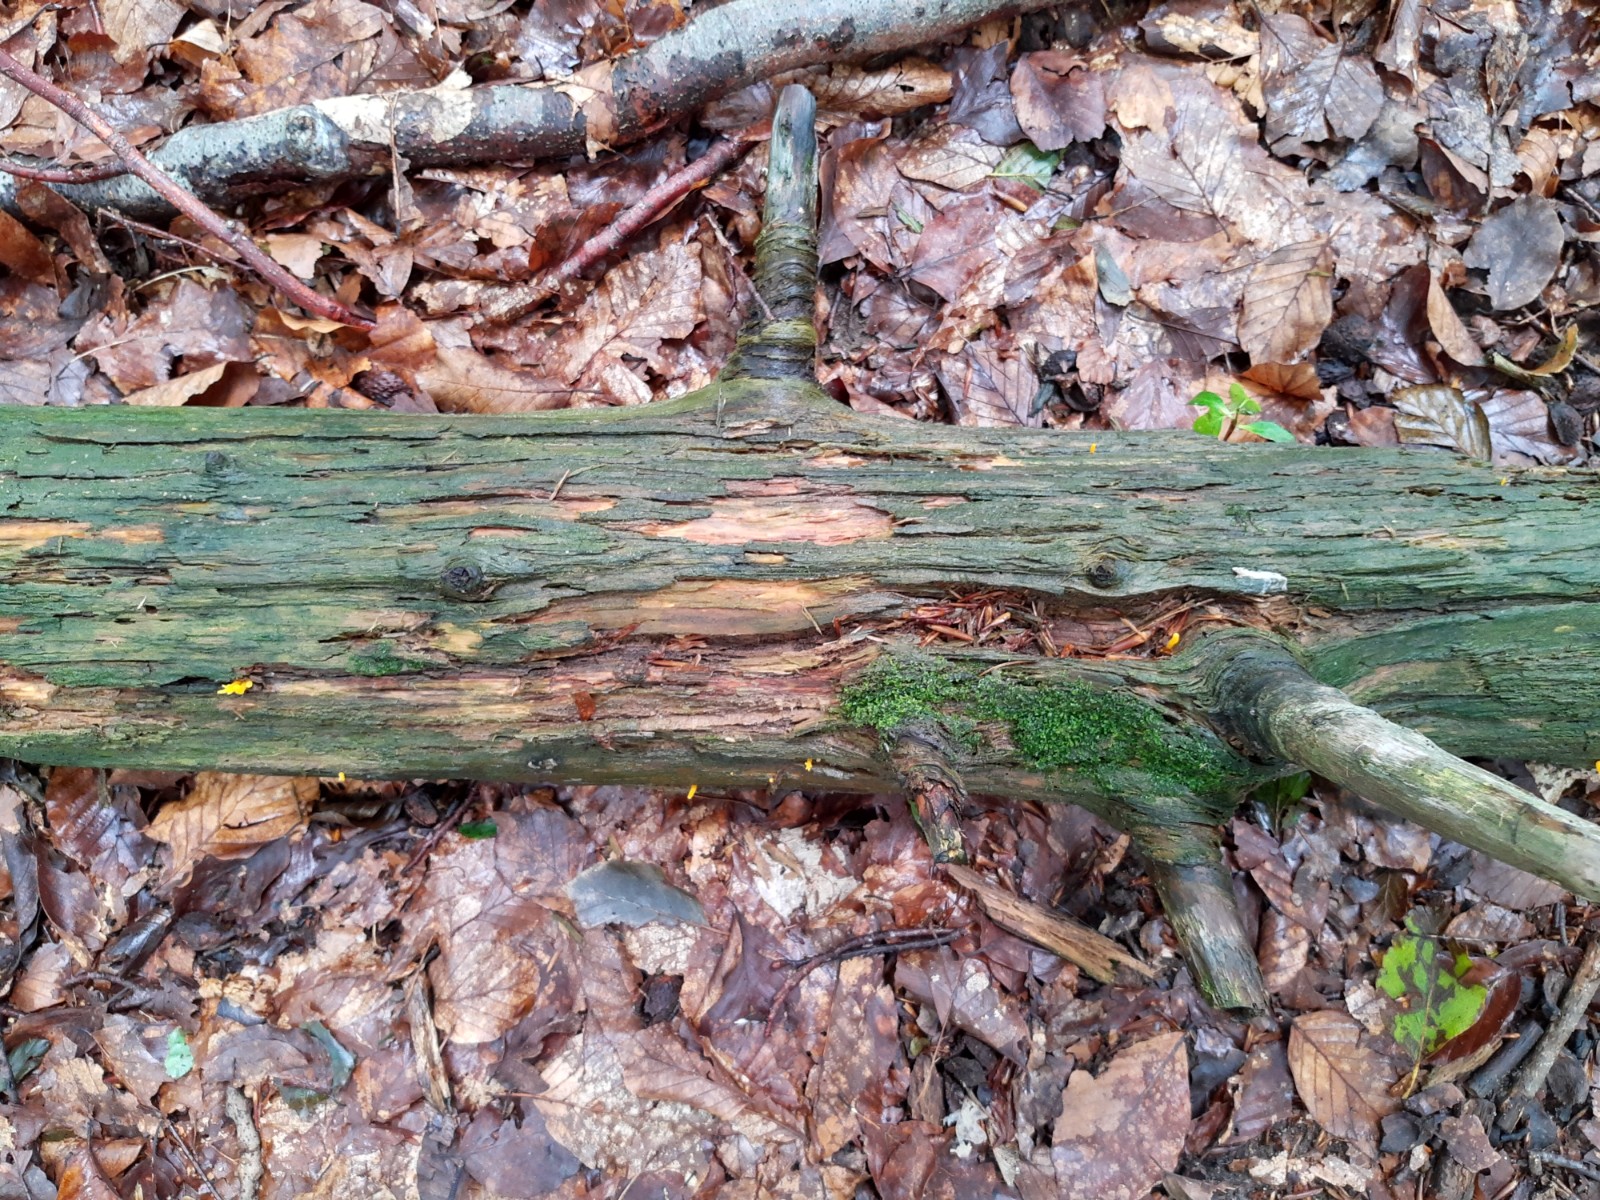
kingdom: Fungi
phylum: Basidiomycota
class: Dacrymycetes
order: Dacrymycetales
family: Dacrymycetaceae
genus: Calocera
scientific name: Calocera viscosa
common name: almindelig guldgaffel
